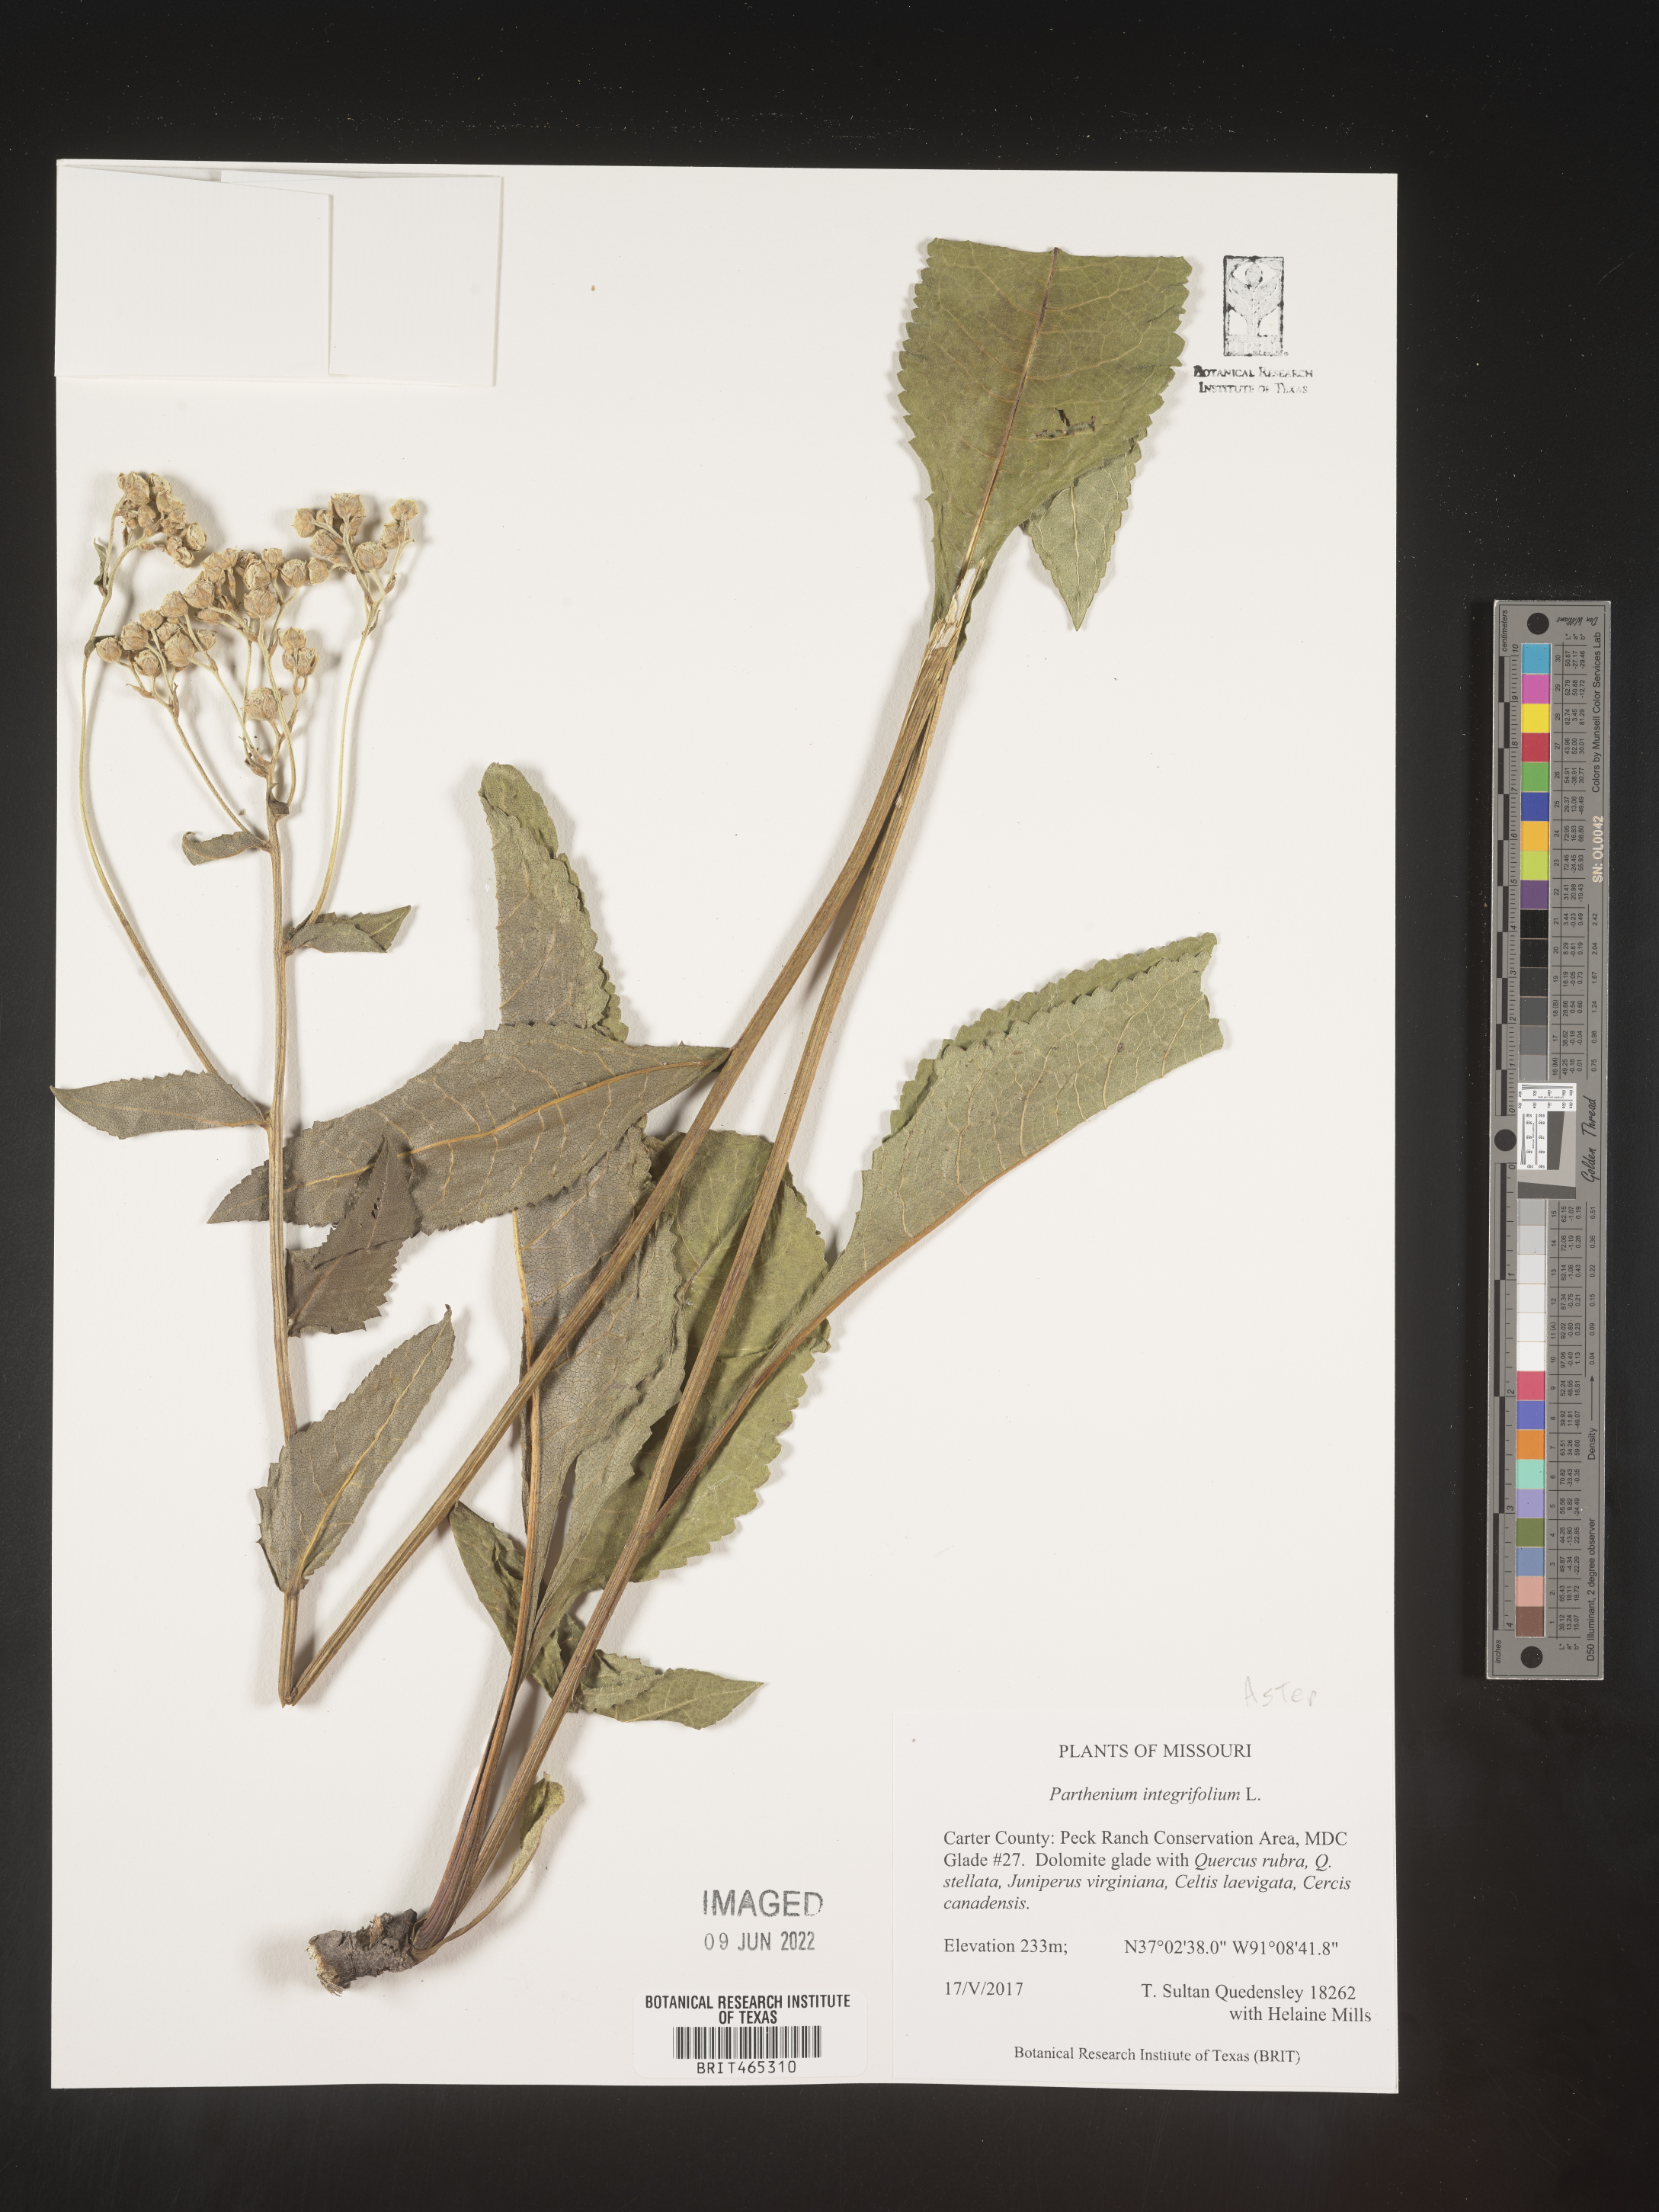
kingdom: Plantae
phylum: Tracheophyta
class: Magnoliopsida
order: Asterales
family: Asteraceae
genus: Parthenium
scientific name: Parthenium integrifolium
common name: American feverfew
